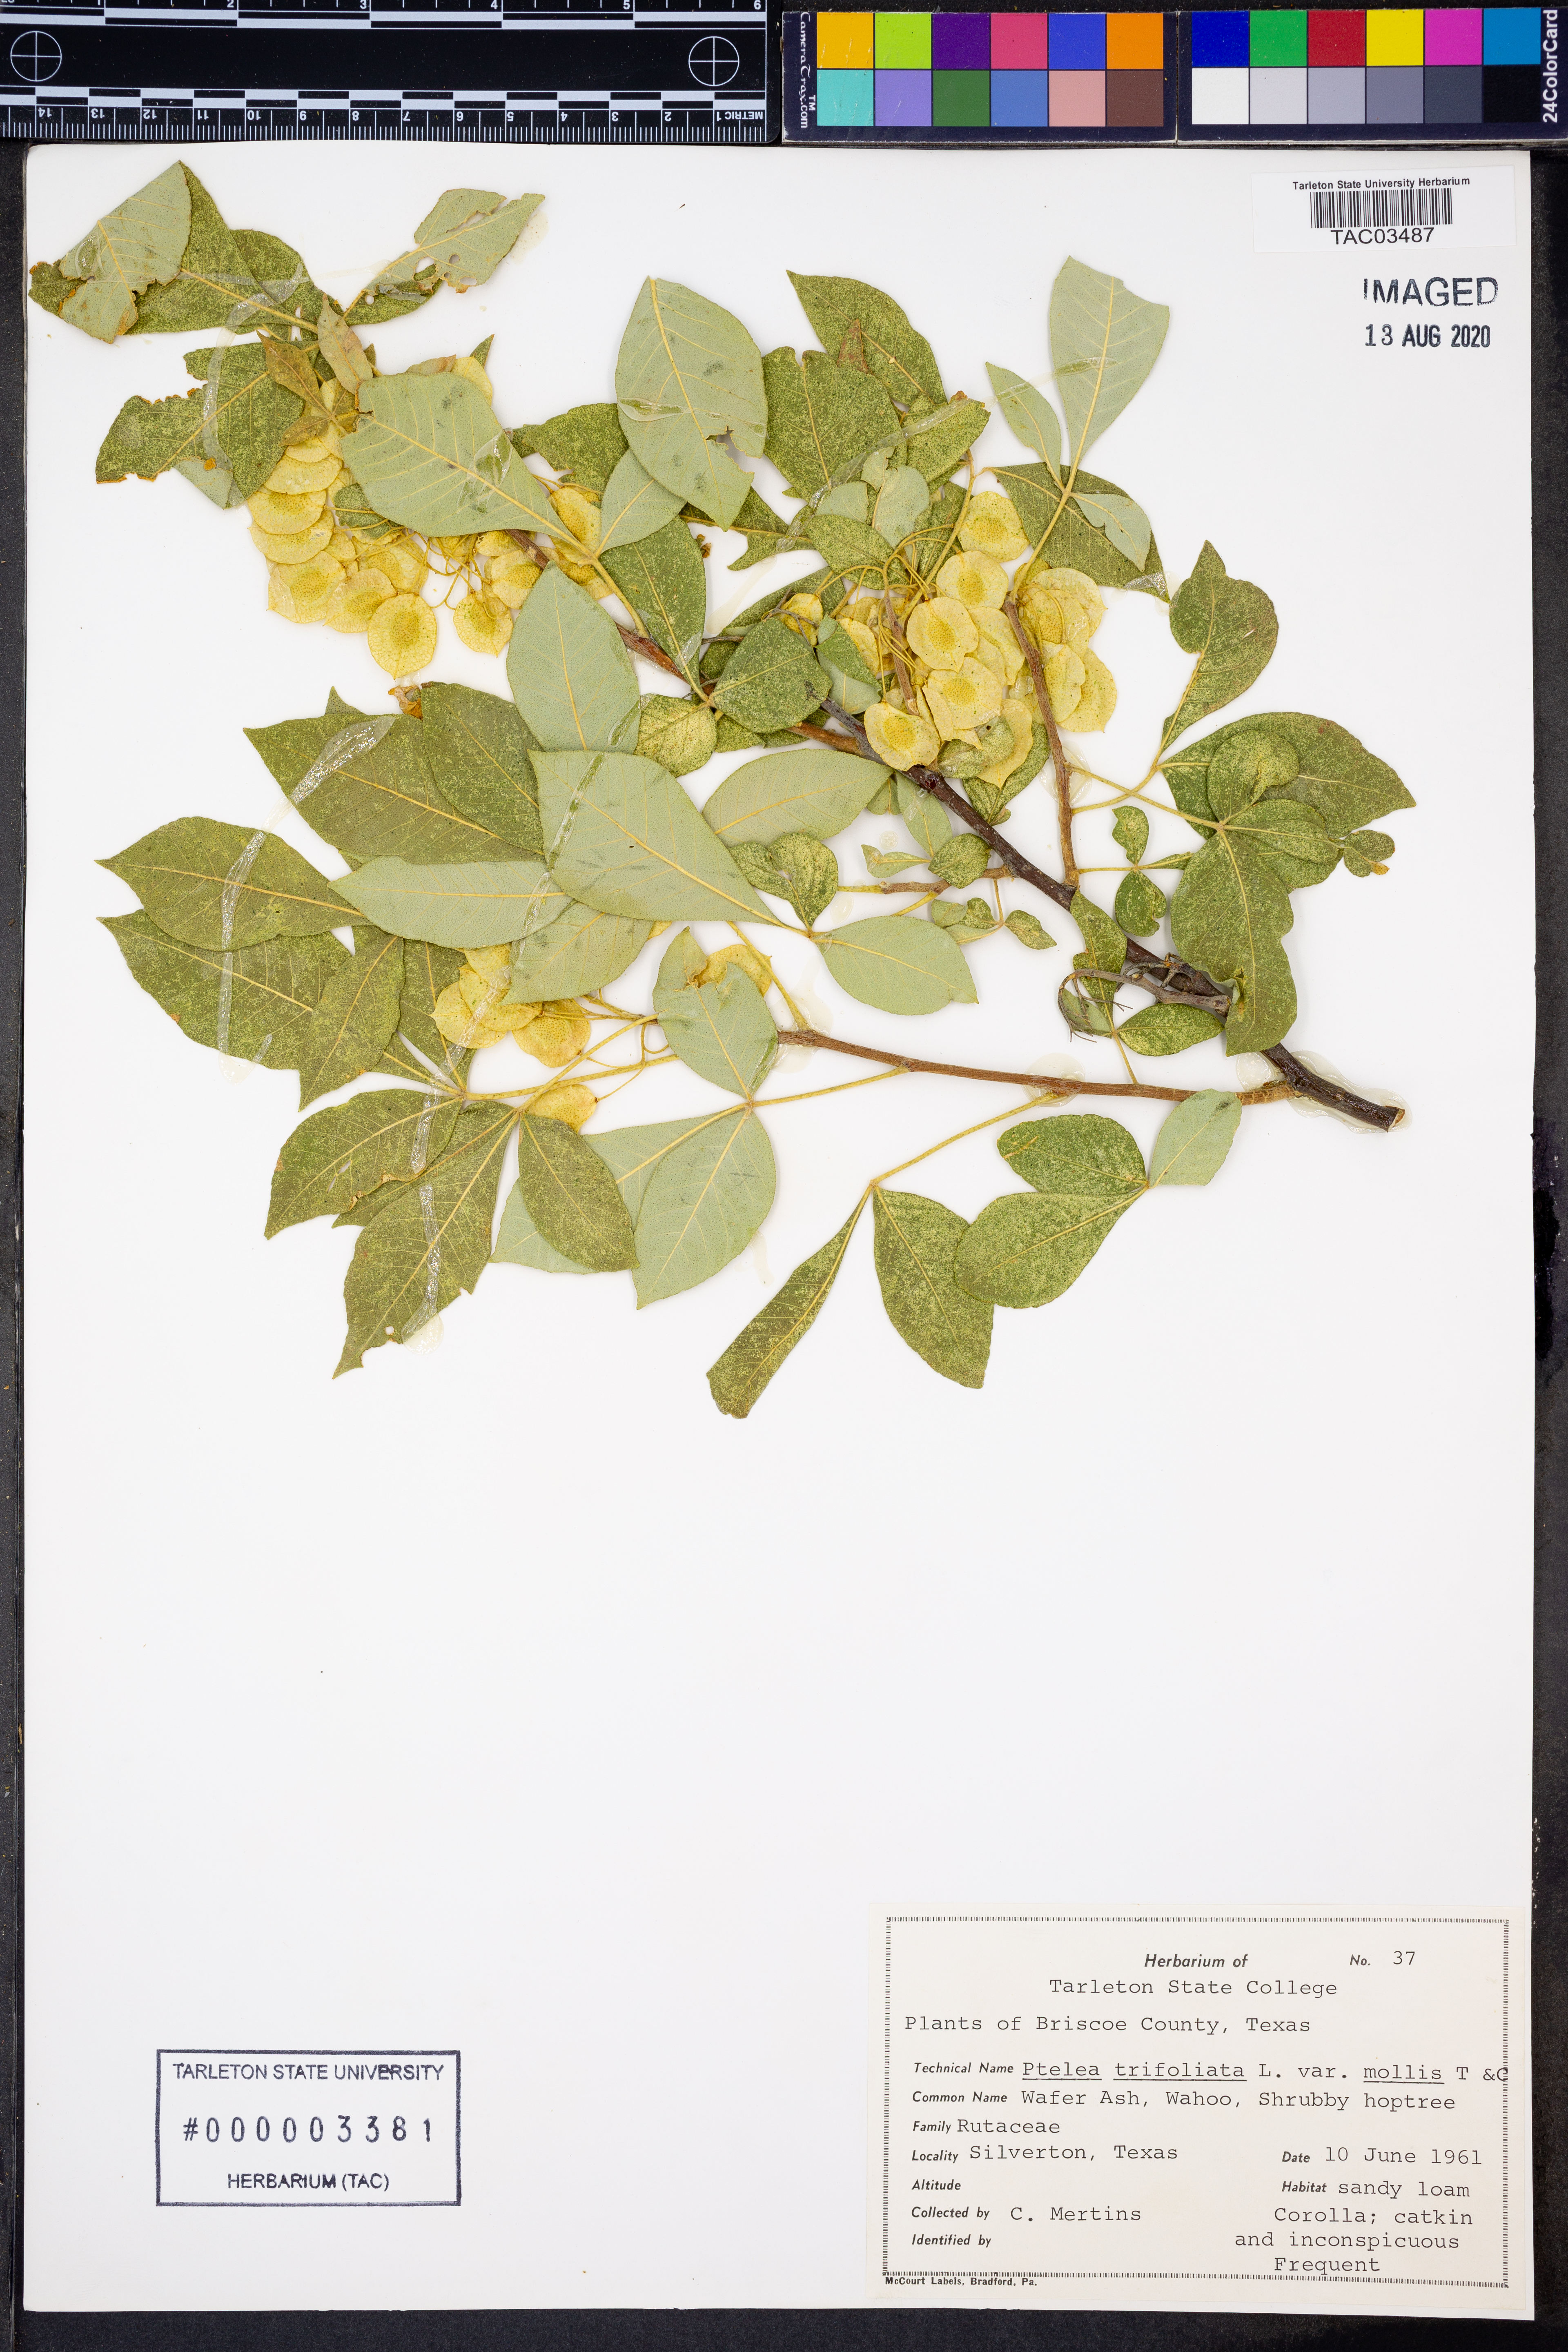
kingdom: Plantae
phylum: Tracheophyta
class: Magnoliopsida
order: Sapindales
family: Rutaceae
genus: Ptelea
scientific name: Ptelea trifoliata
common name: Common hop-tree
